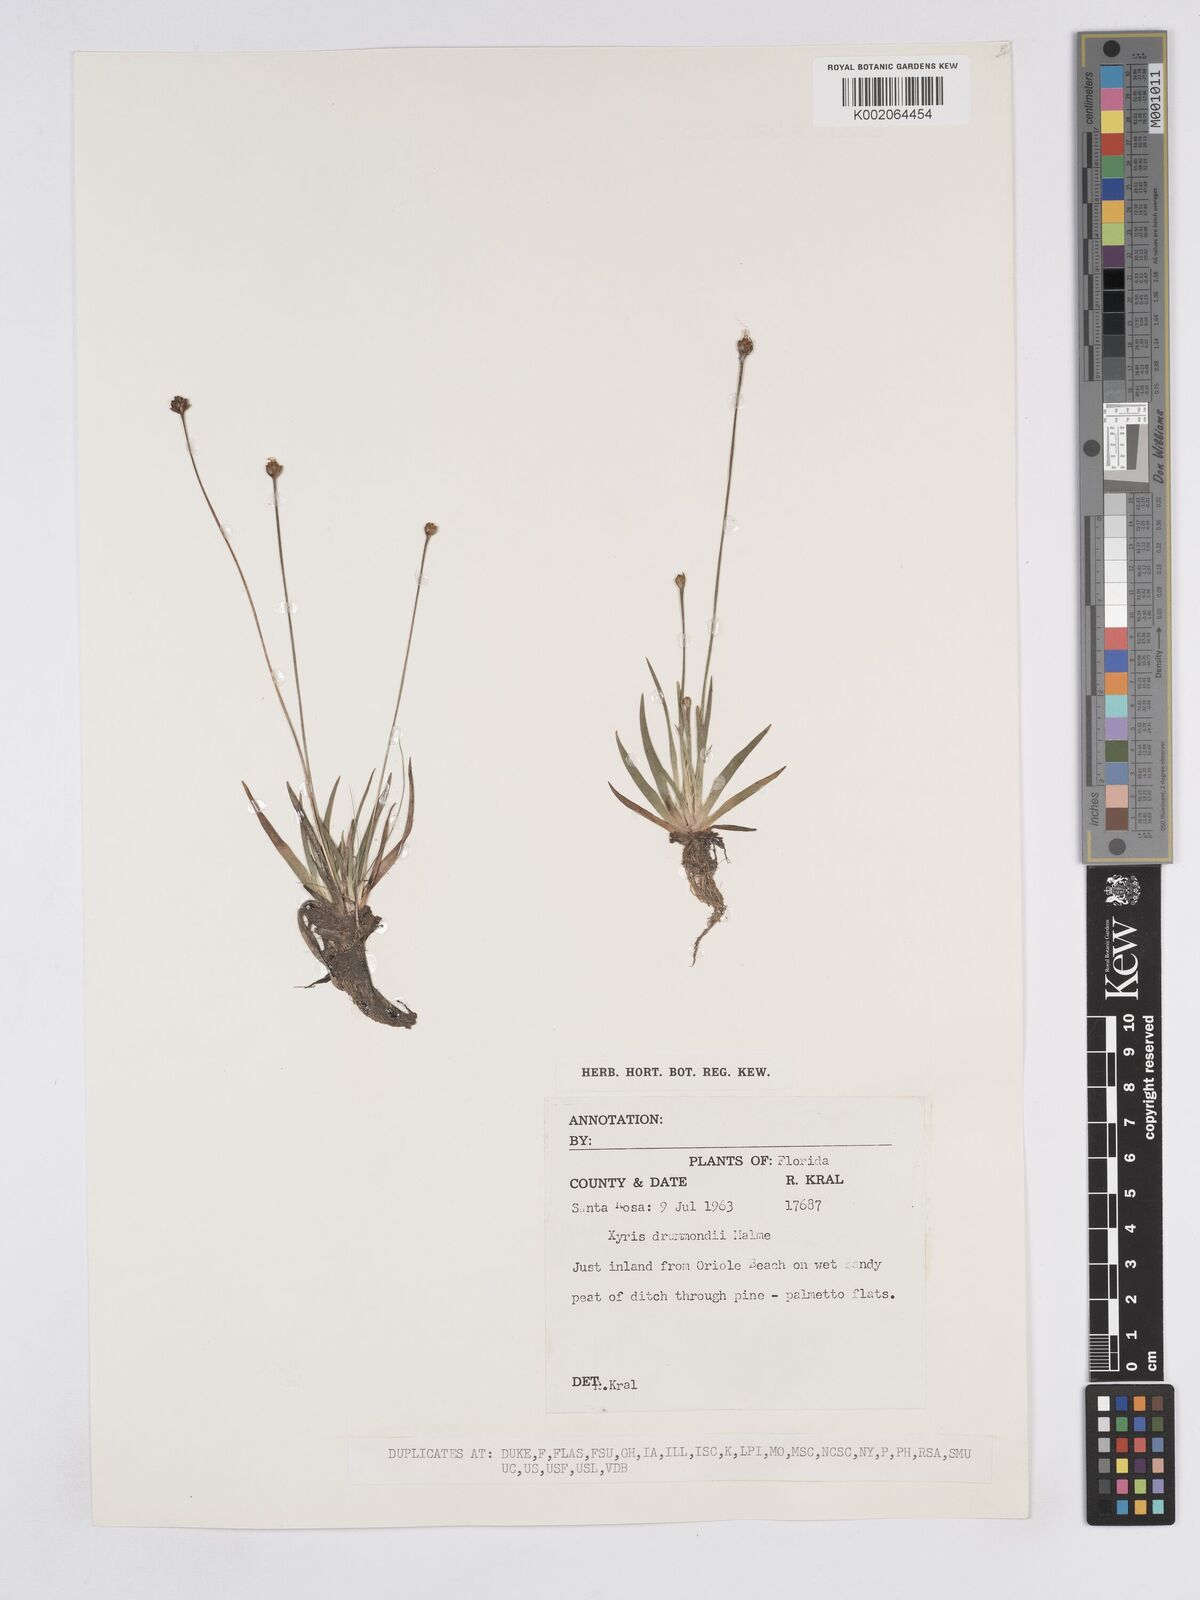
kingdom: Plantae
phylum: Tracheophyta
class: Liliopsida
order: Poales
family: Xyridaceae
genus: Xyris
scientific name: Xyris drummondii
